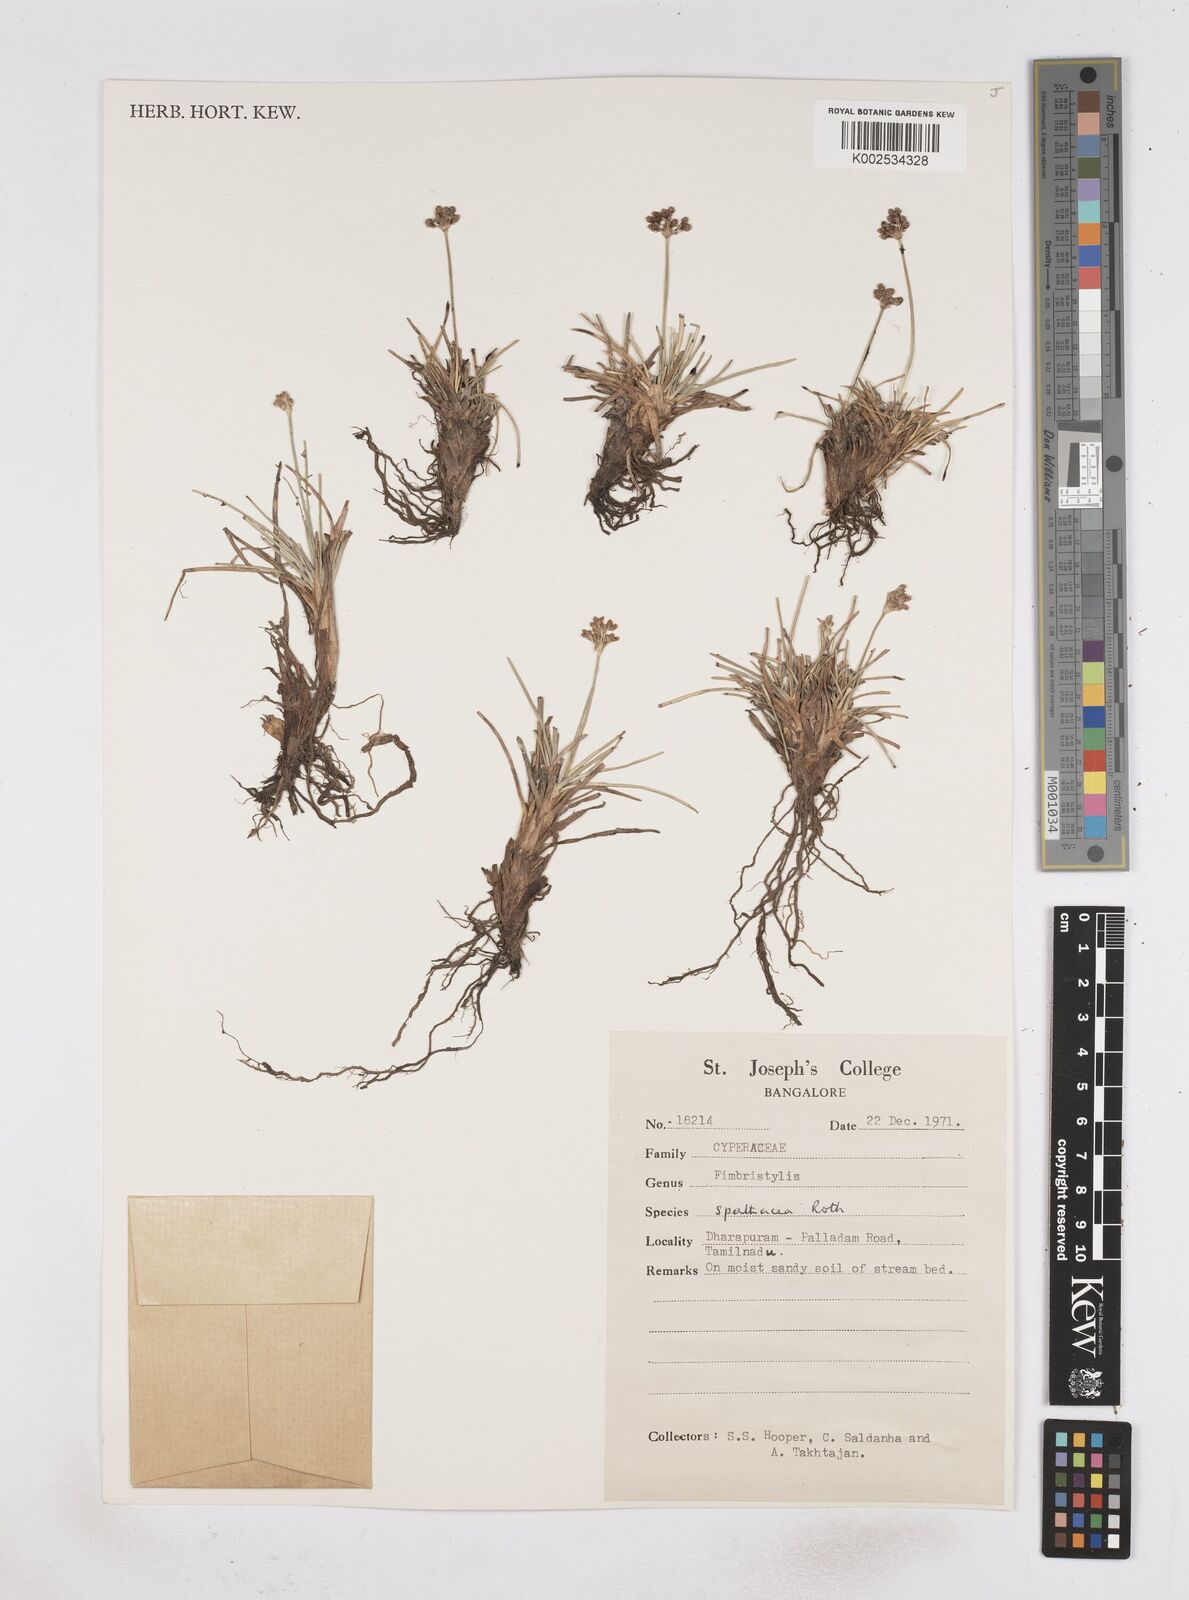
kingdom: Plantae
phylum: Tracheophyta
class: Liliopsida
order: Poales
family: Cyperaceae
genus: Fimbristylis
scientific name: Fimbristylis cymosa
